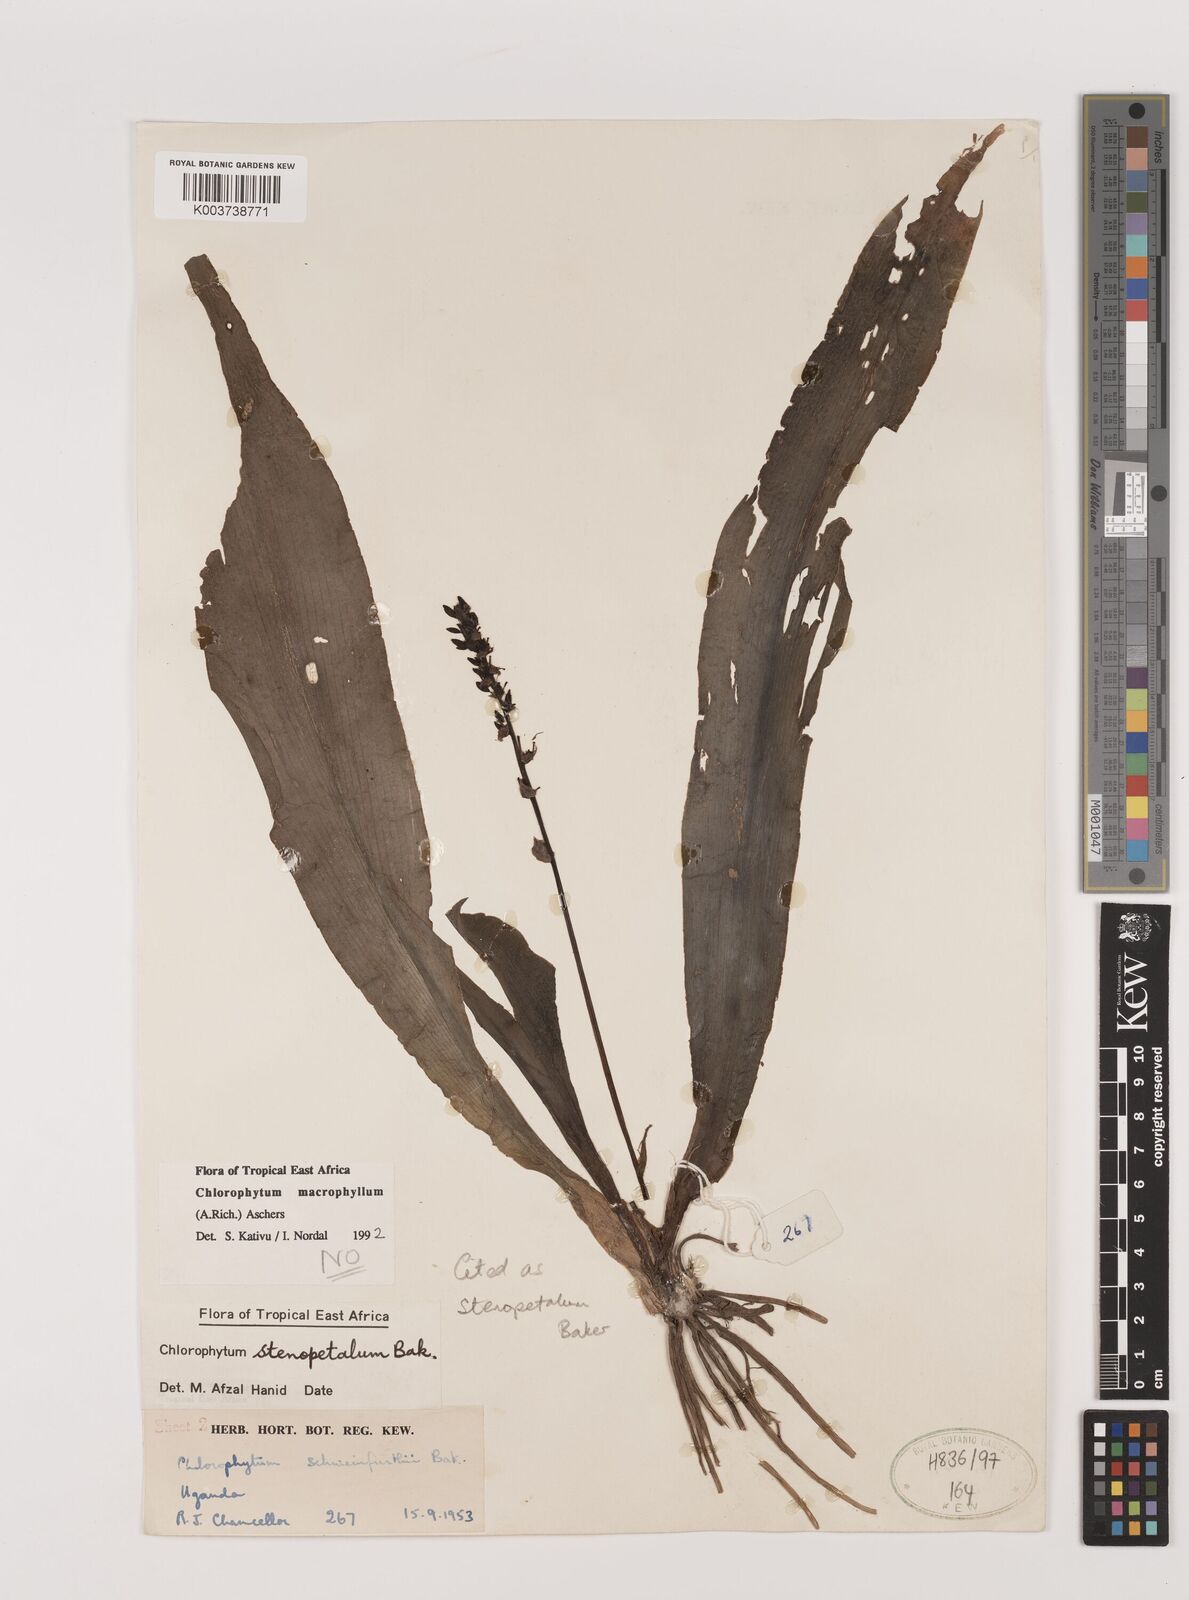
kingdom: Plantae
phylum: Tracheophyta
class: Liliopsida
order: Asparagales
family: Asparagaceae
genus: Chlorophytum
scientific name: Chlorophytum stenopetalum
